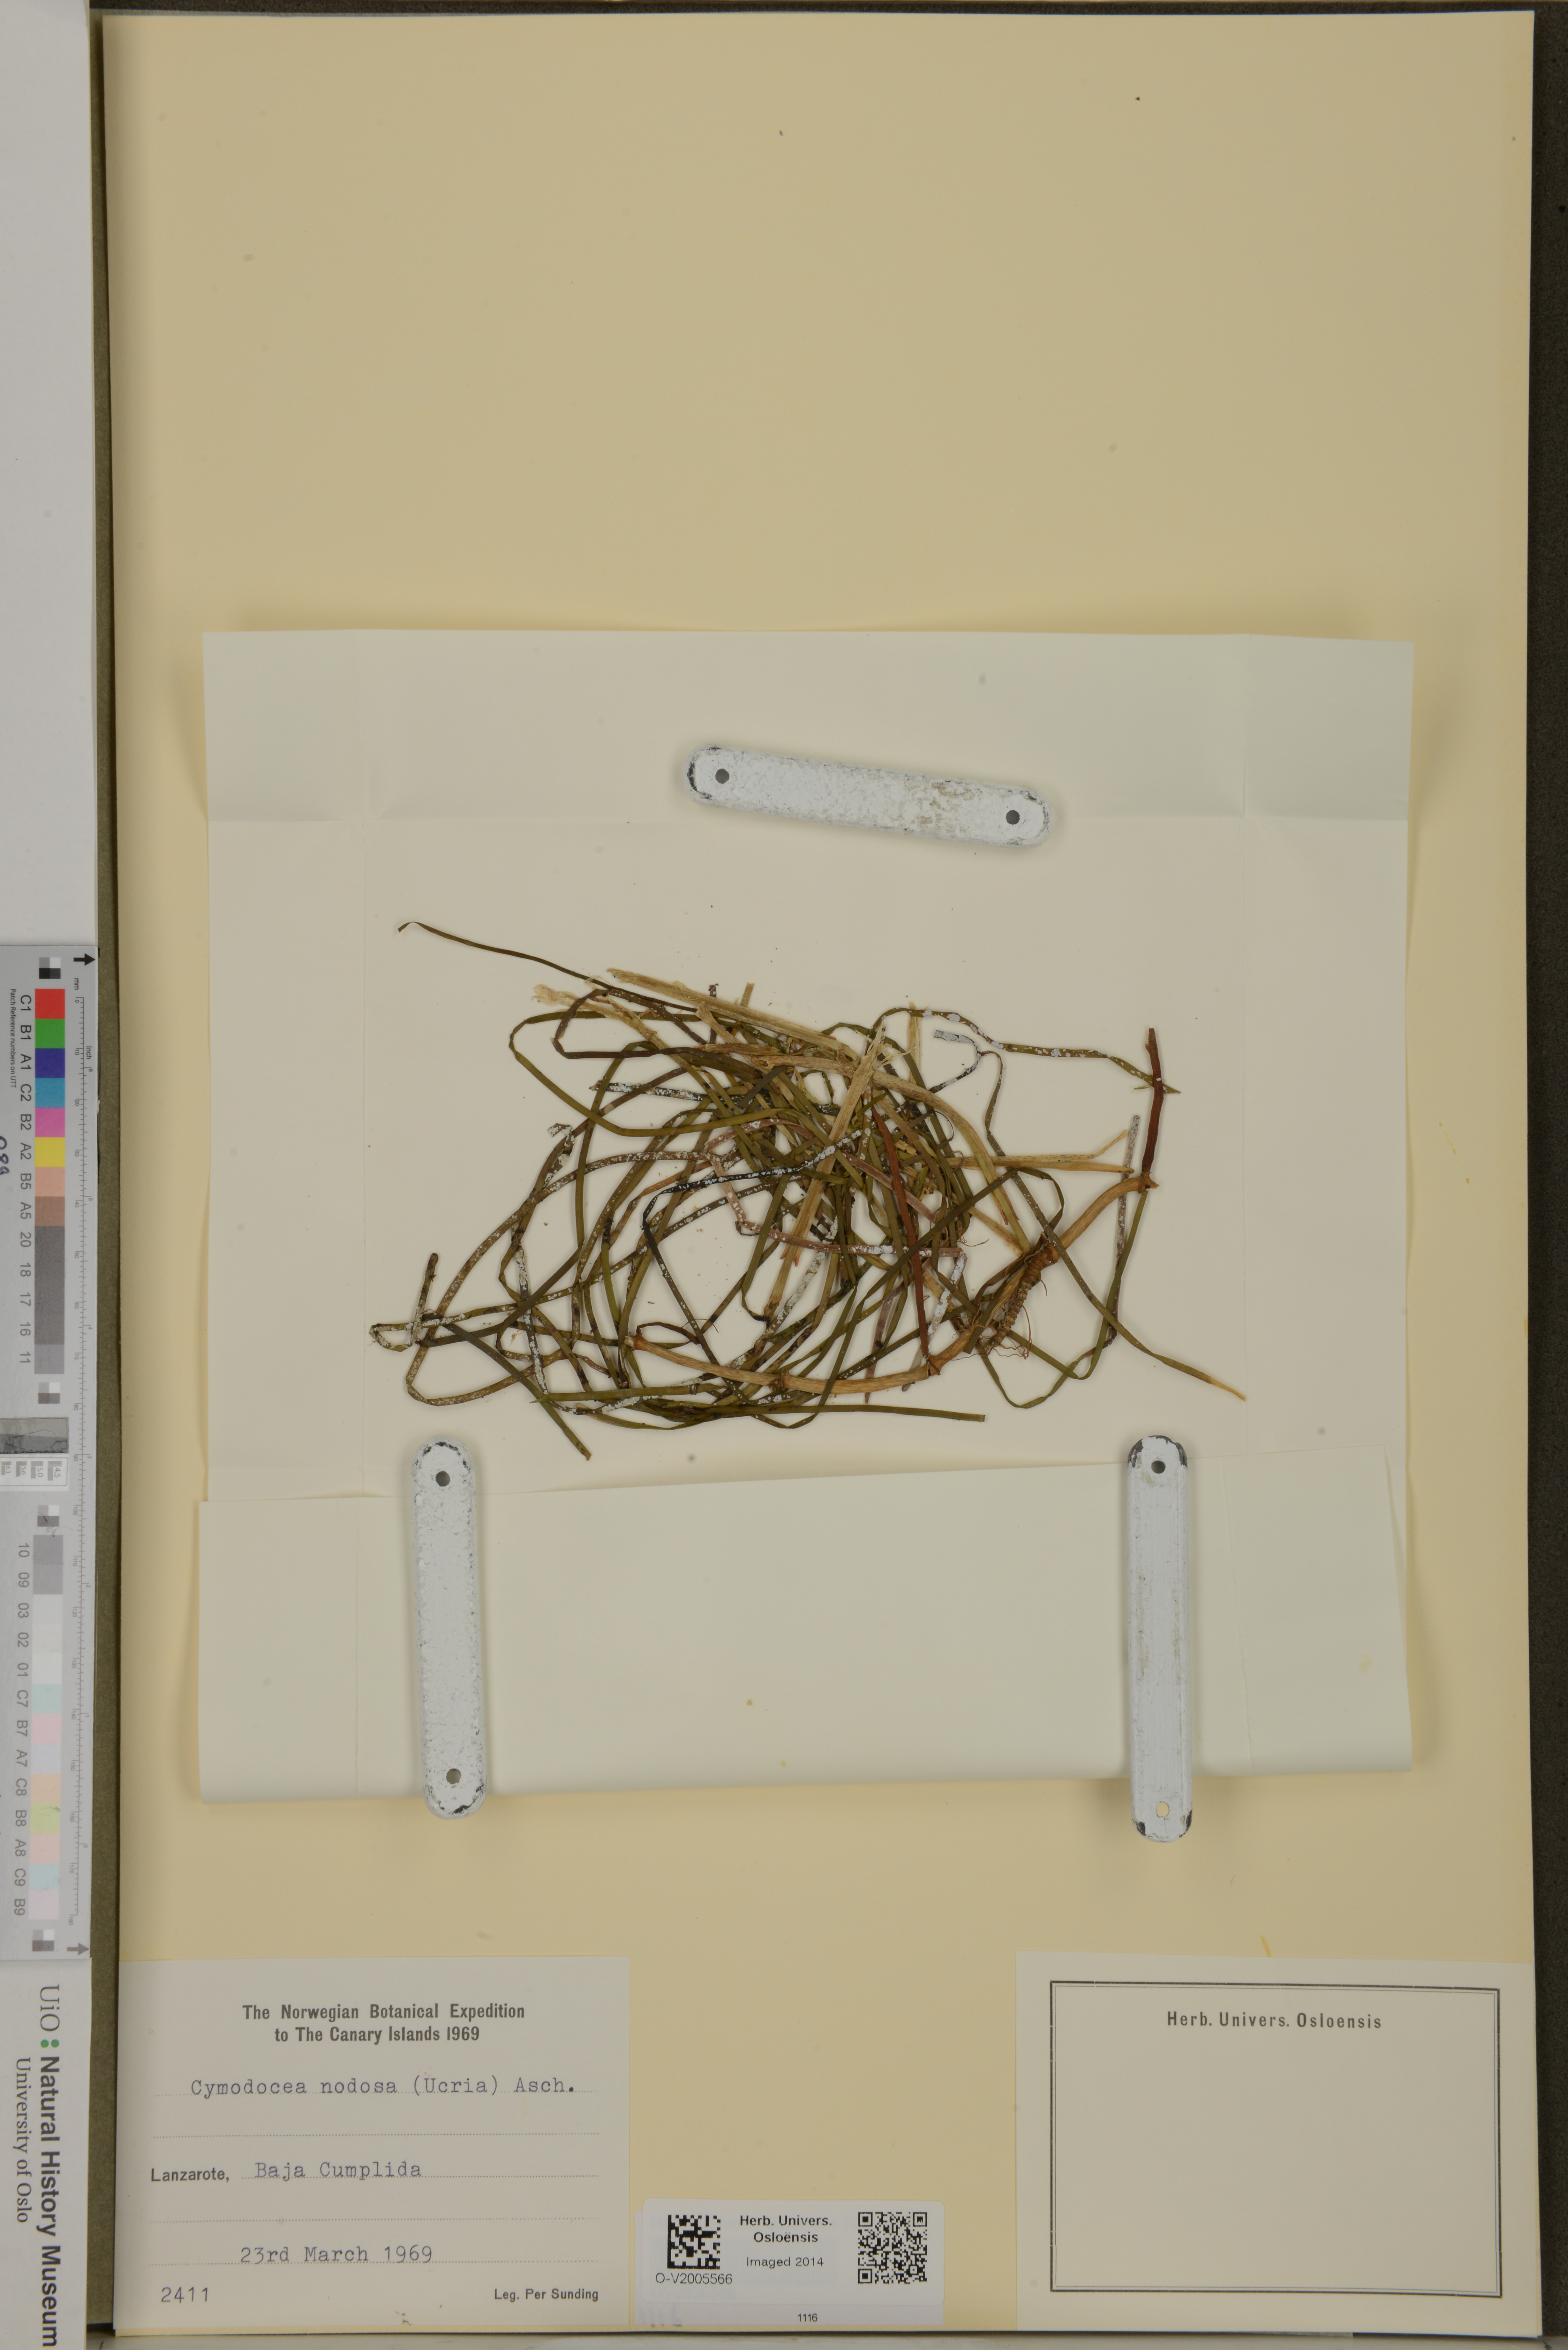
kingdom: Plantae
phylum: Tracheophyta
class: Liliopsida
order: Alismatales
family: Cymodoceaceae
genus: Cymodocea
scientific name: Cymodocea nodosa
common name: Slender seagrass
